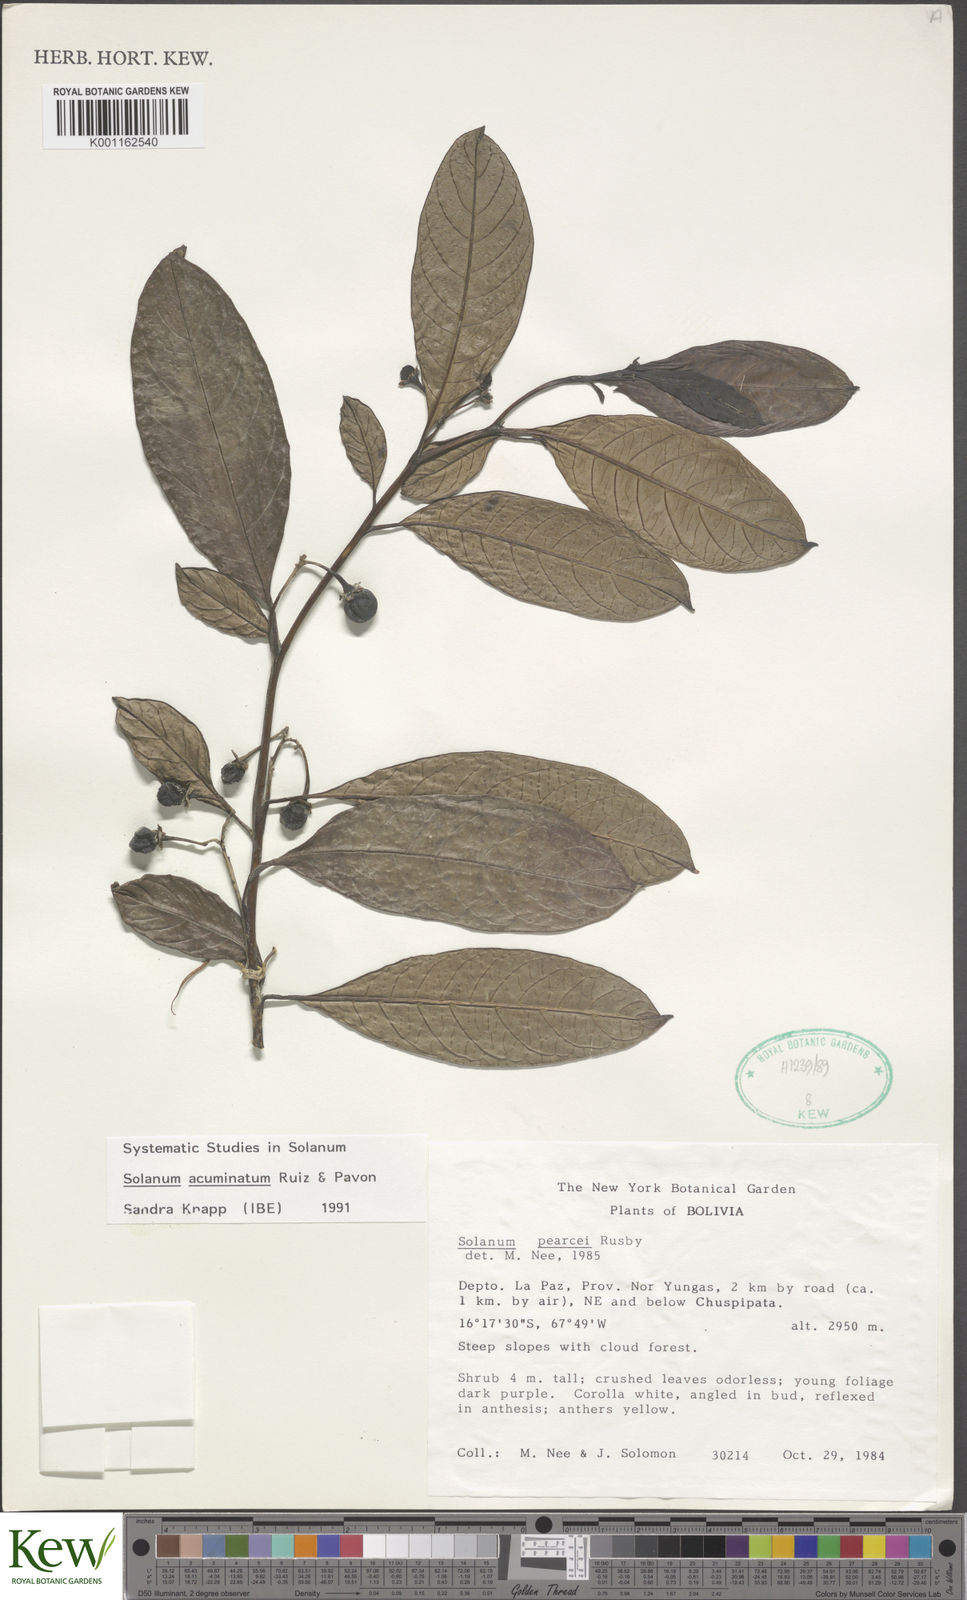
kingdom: Plantae
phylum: Tracheophyta
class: Magnoliopsida
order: Solanales
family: Solanaceae
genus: Solanum
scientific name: Solanum acuminatum
